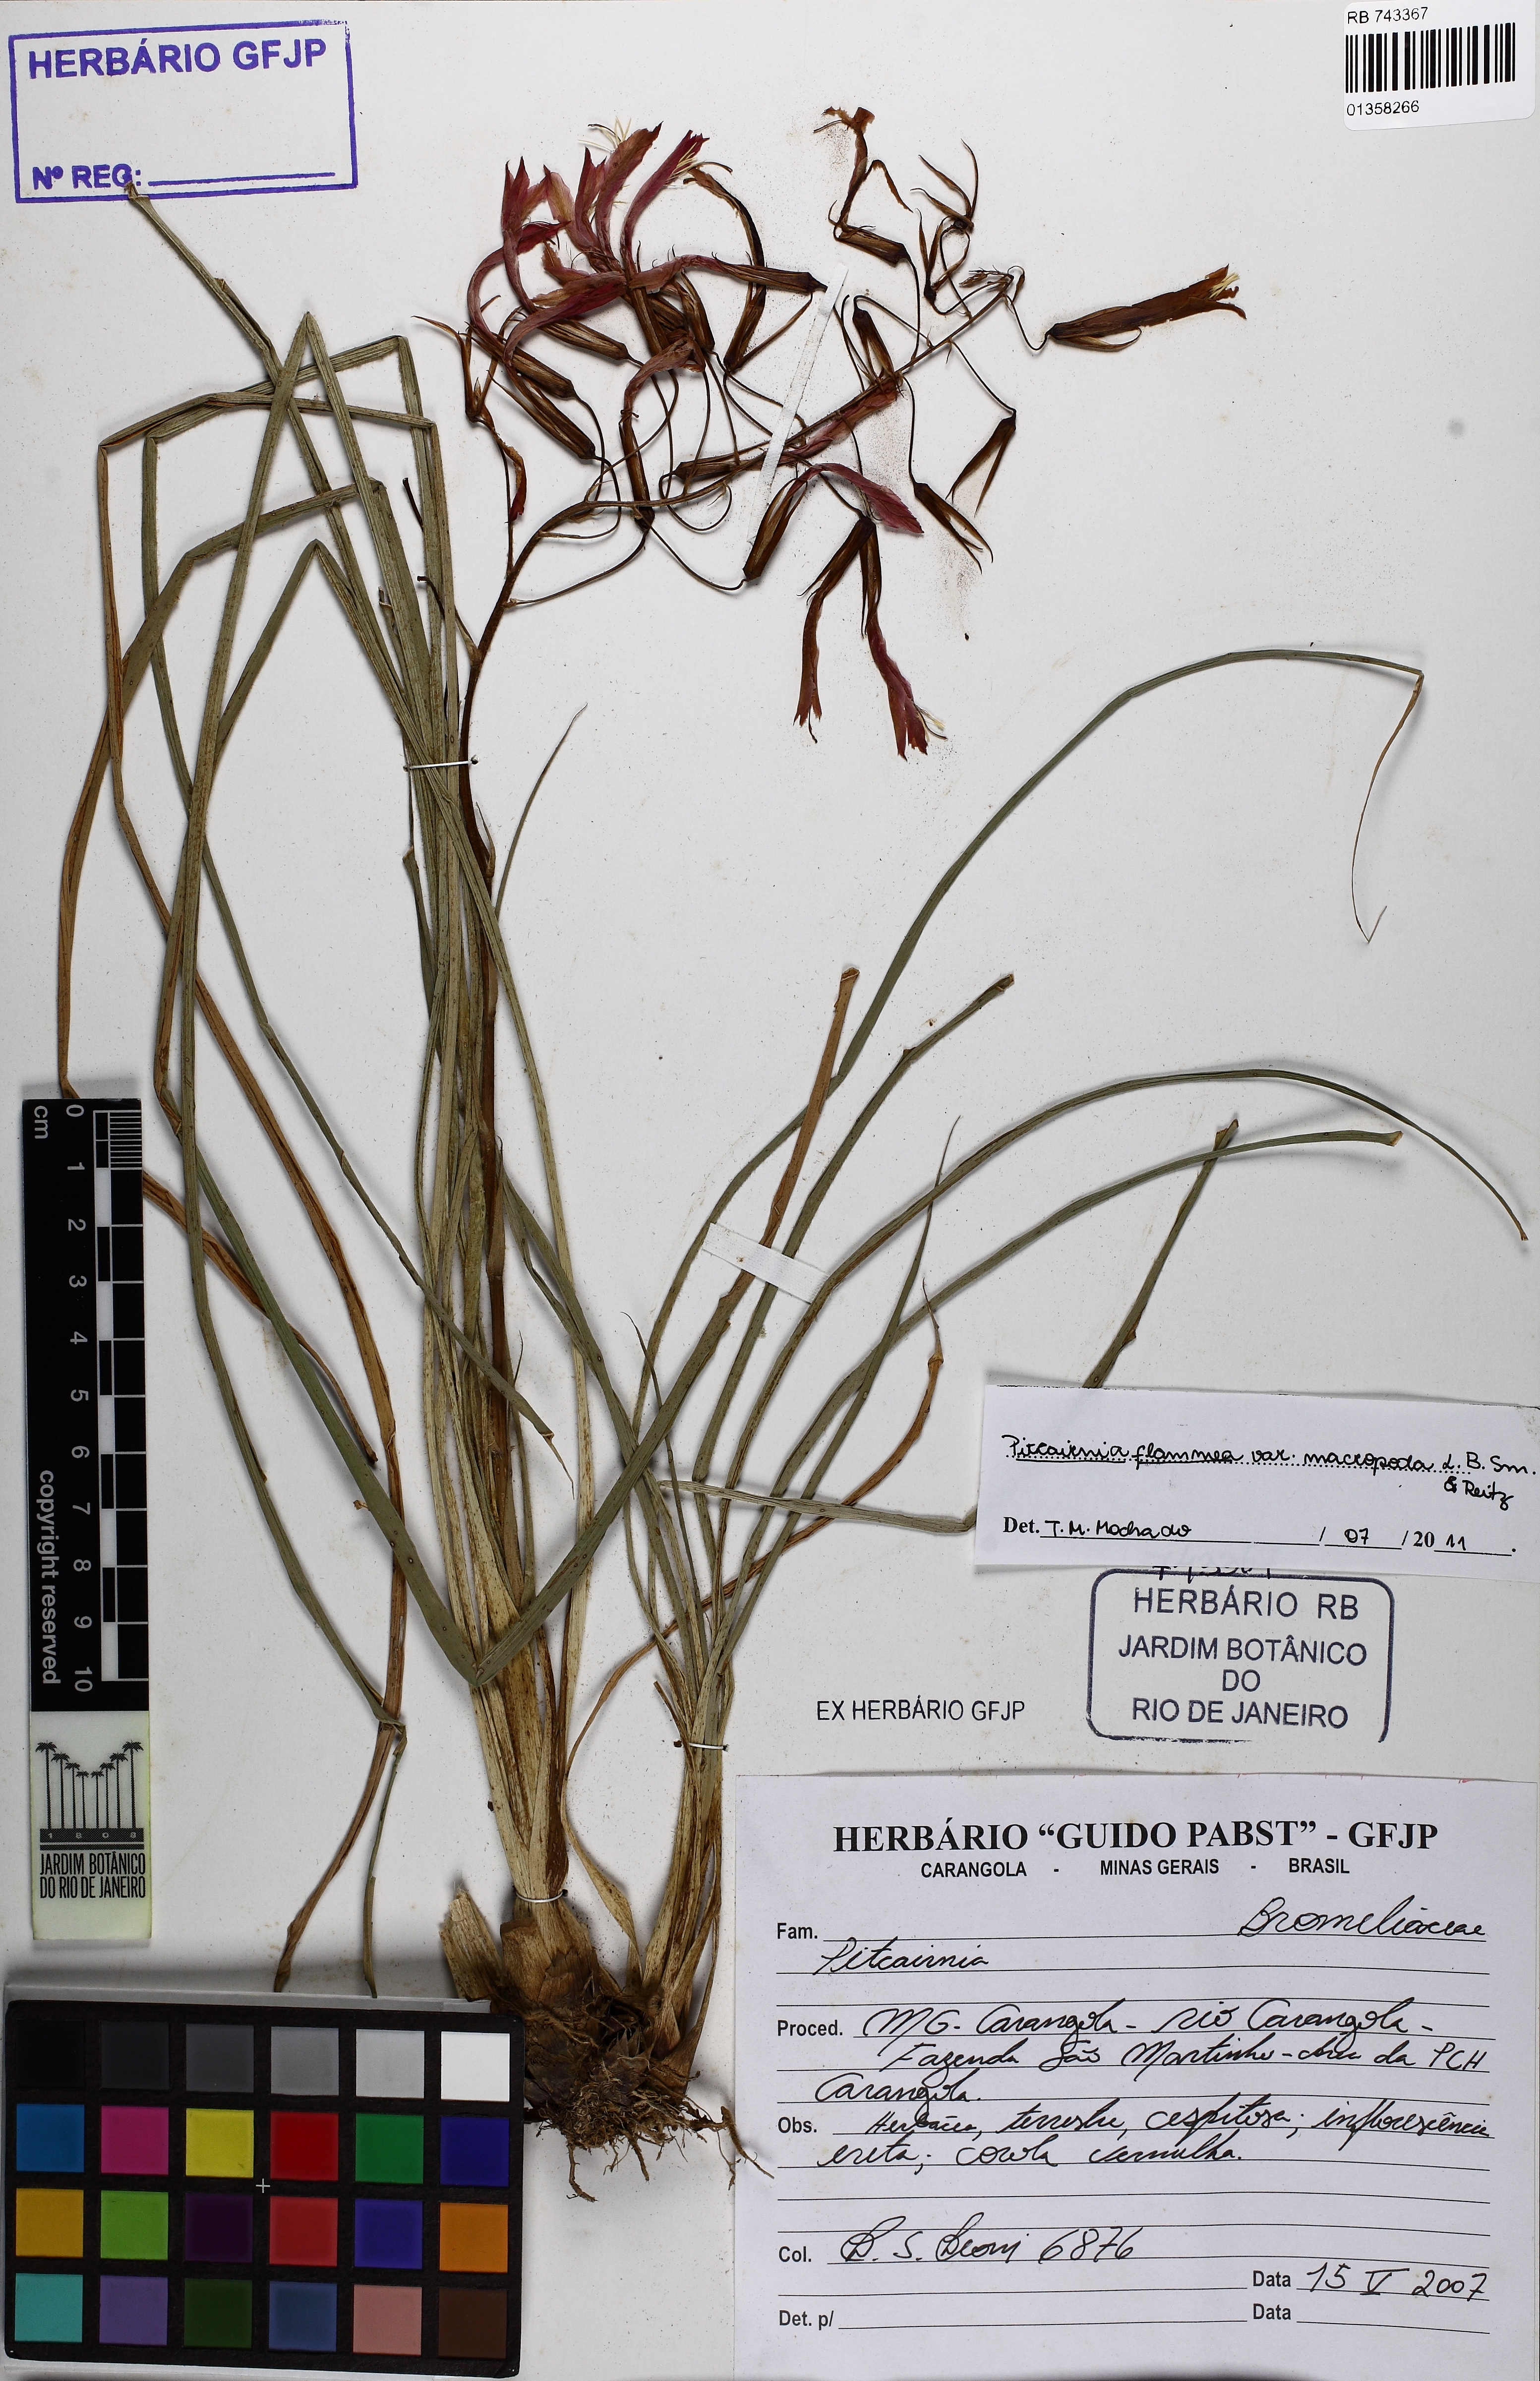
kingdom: Plantae
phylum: Tracheophyta
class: Liliopsida
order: Poales
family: Bromeliaceae
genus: Pitcairnia
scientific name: Pitcairnia flammea
